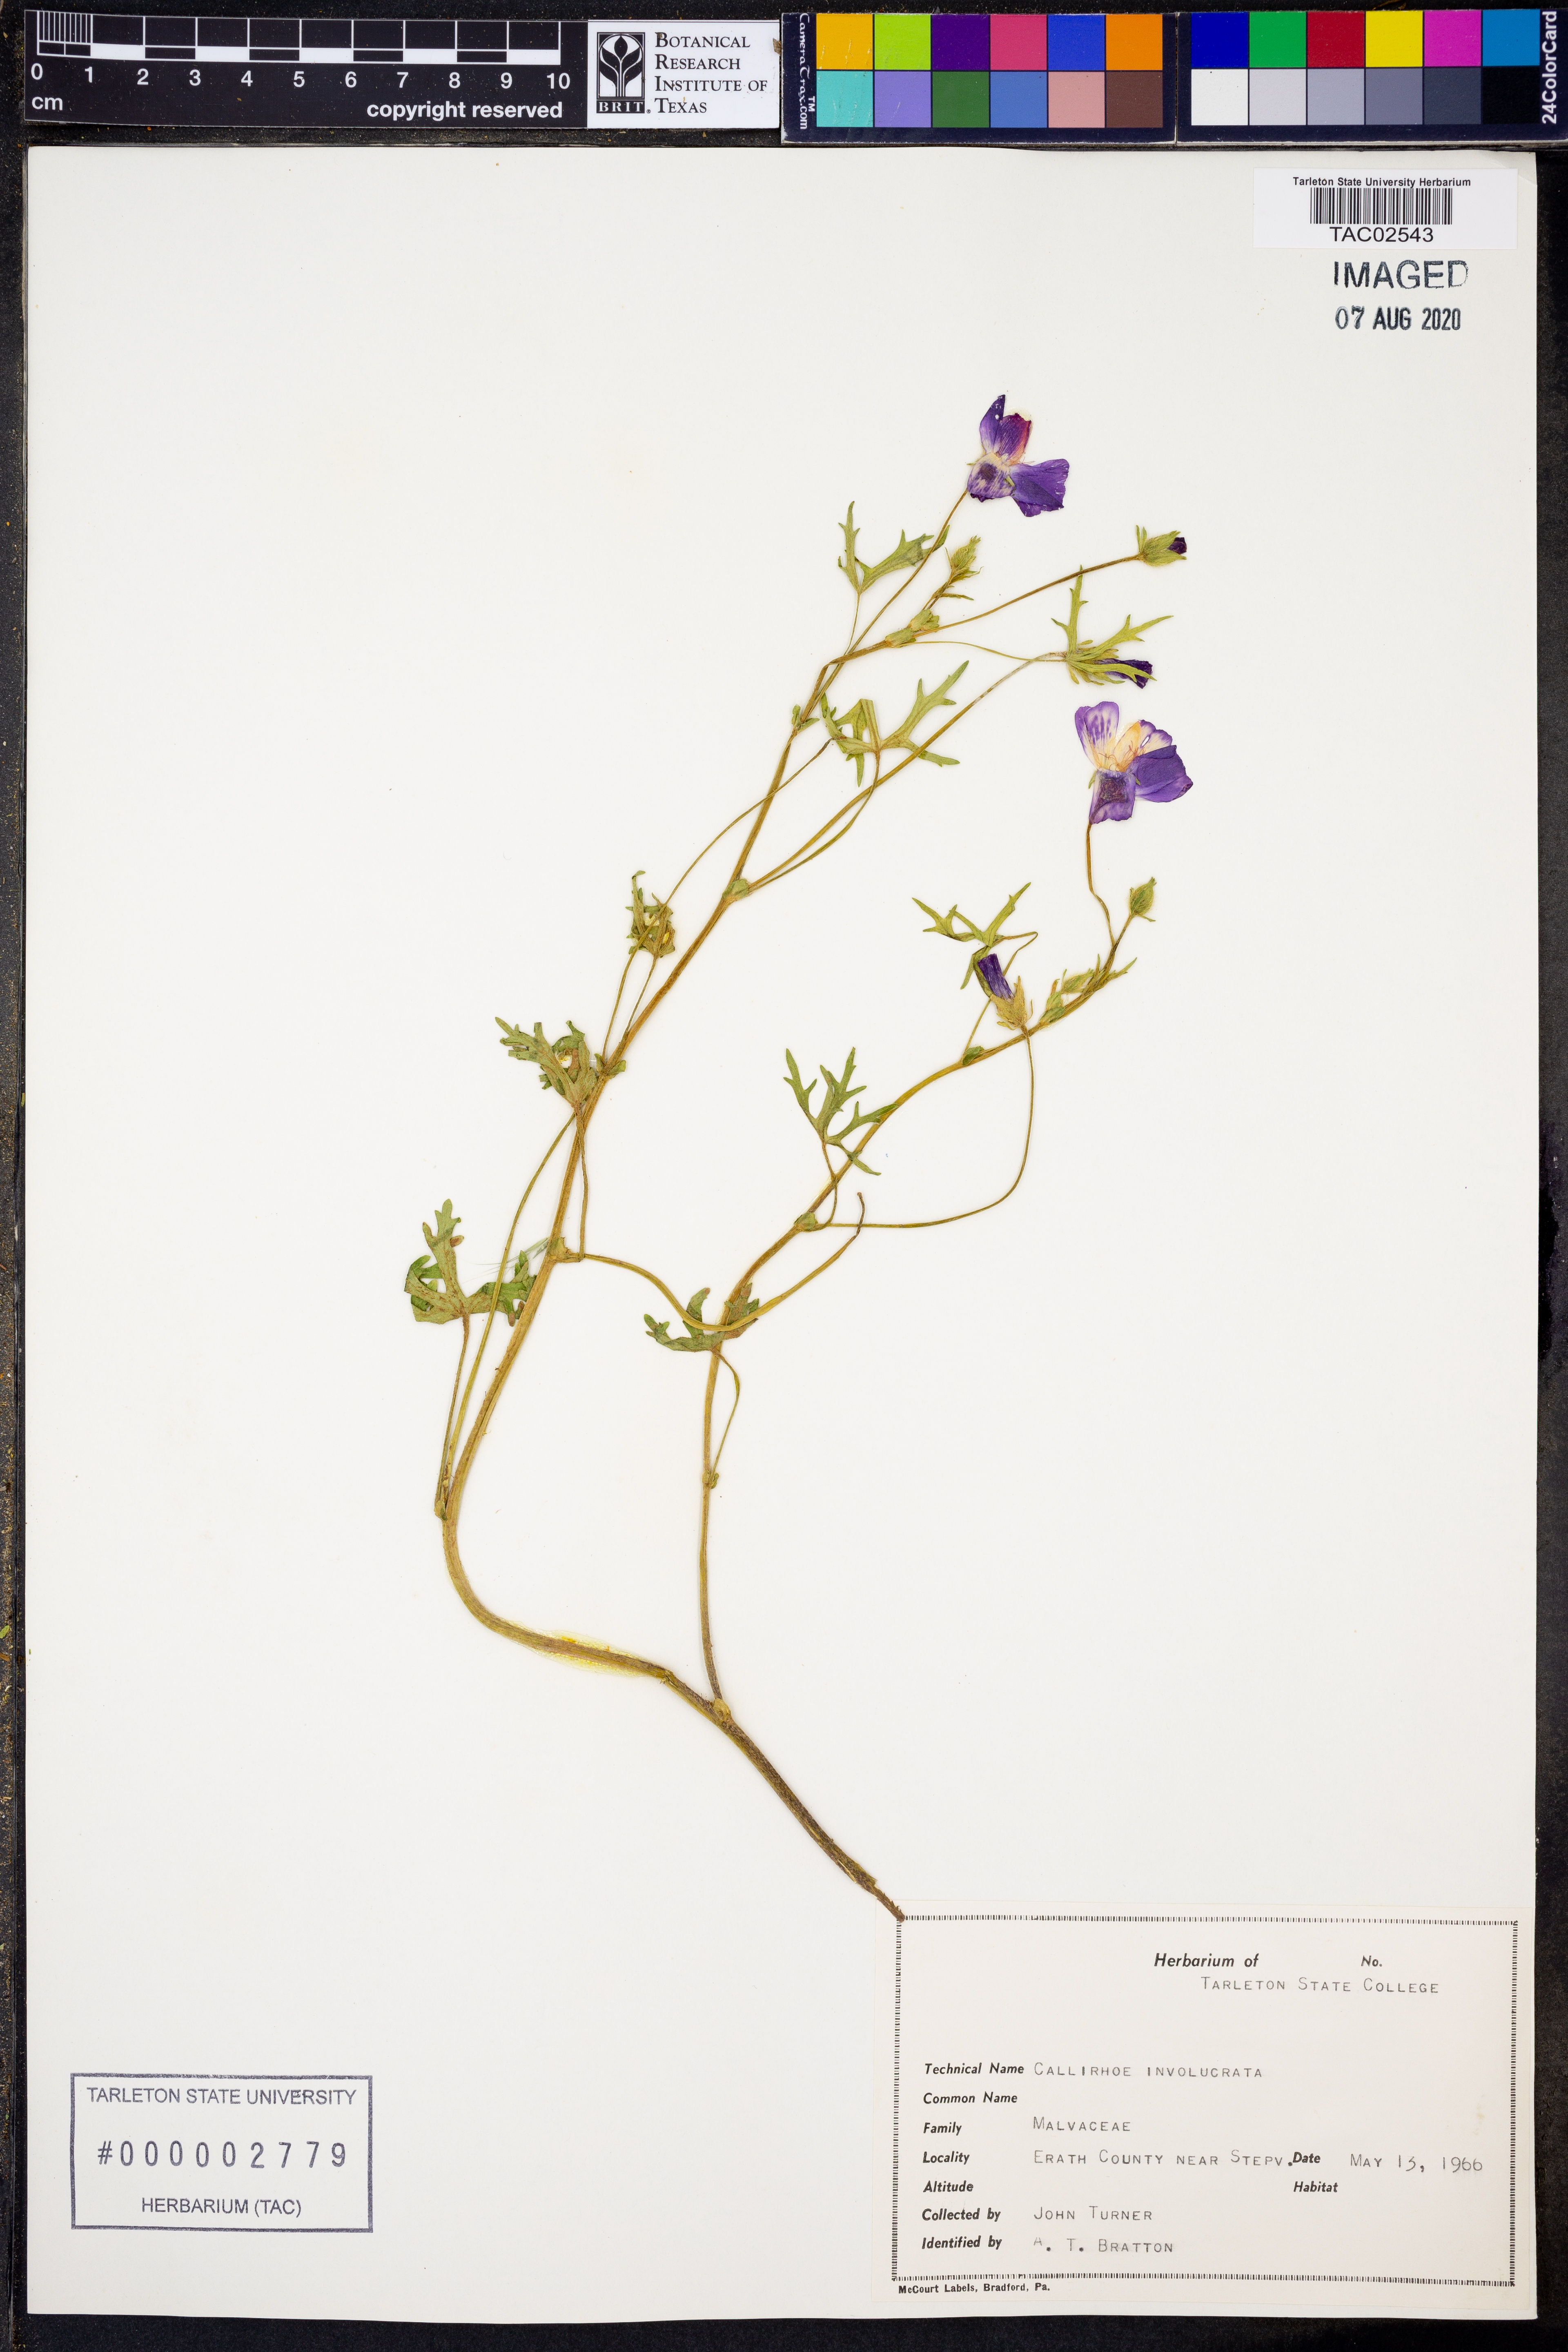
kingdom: Plantae
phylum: Tracheophyta
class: Magnoliopsida
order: Malvales
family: Malvaceae
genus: Callirhoe
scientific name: Callirhoe involucrata
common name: Purple poppy-mallow
